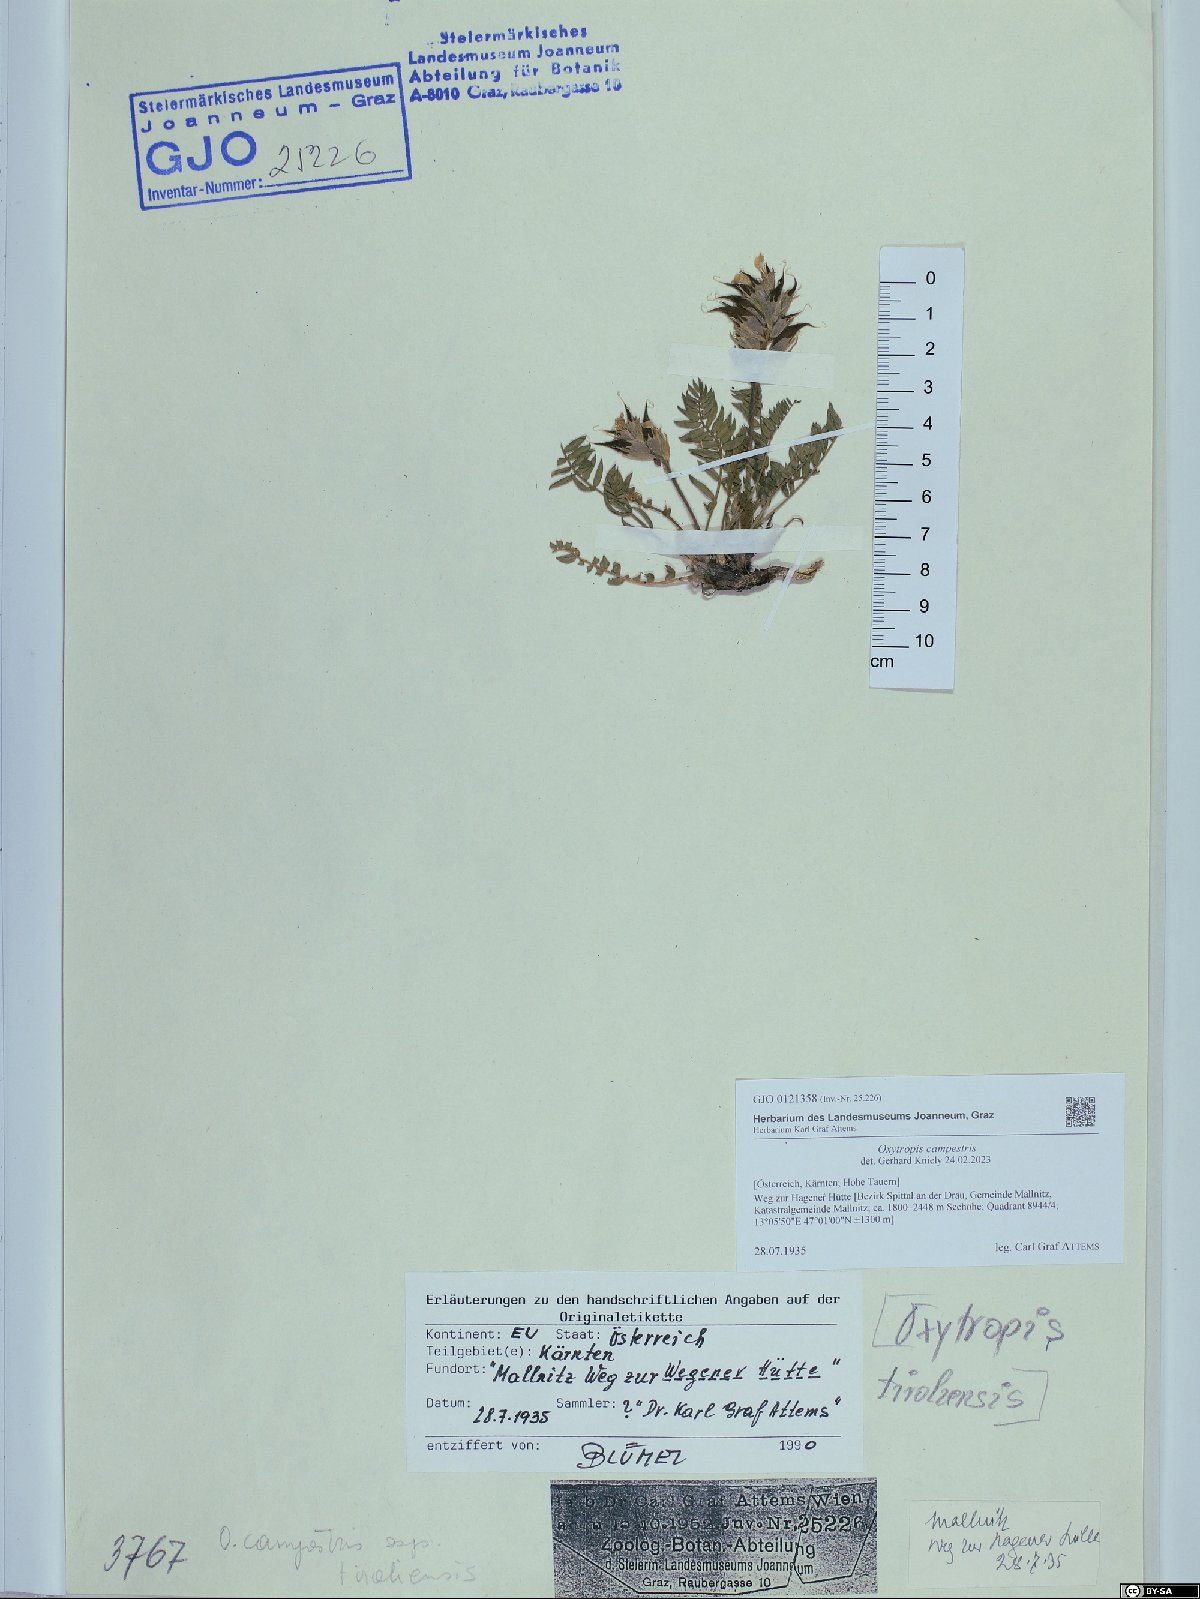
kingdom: Plantae
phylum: Tracheophyta
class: Magnoliopsida
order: Fabales
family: Fabaceae
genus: Oxytropis
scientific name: Oxytropis campestris
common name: Field locoweed
